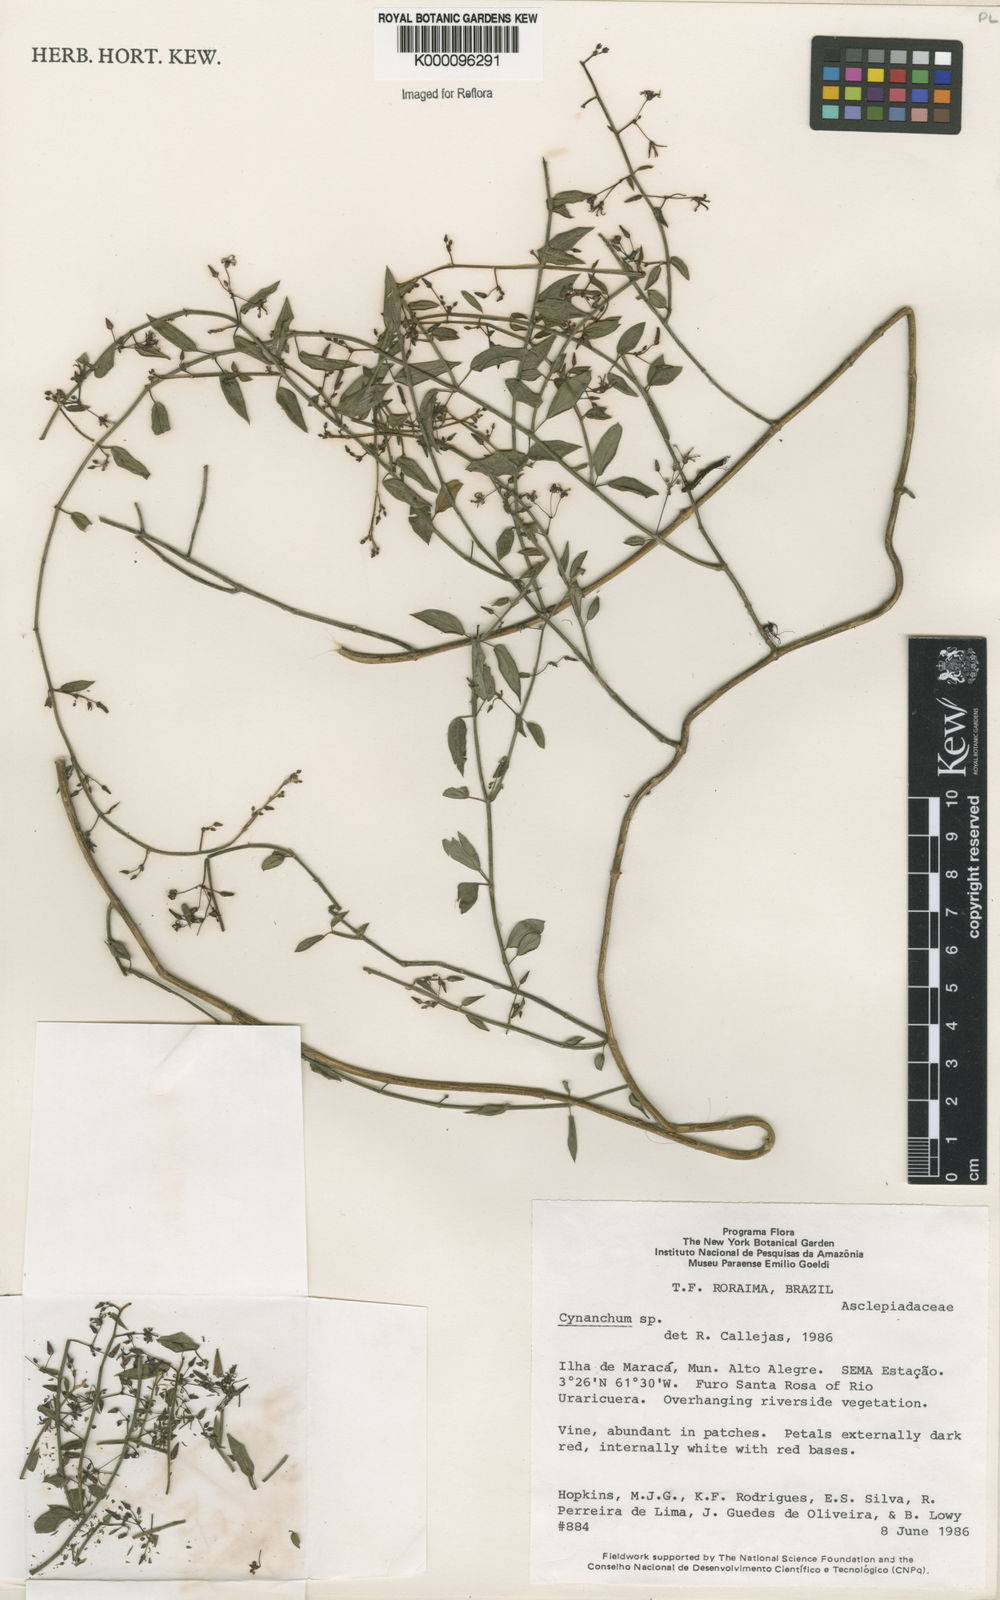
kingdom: Plantae
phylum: Tracheophyta
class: Magnoliopsida
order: Gentianales
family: Apocynaceae
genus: Tassadia
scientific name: Tassadia
